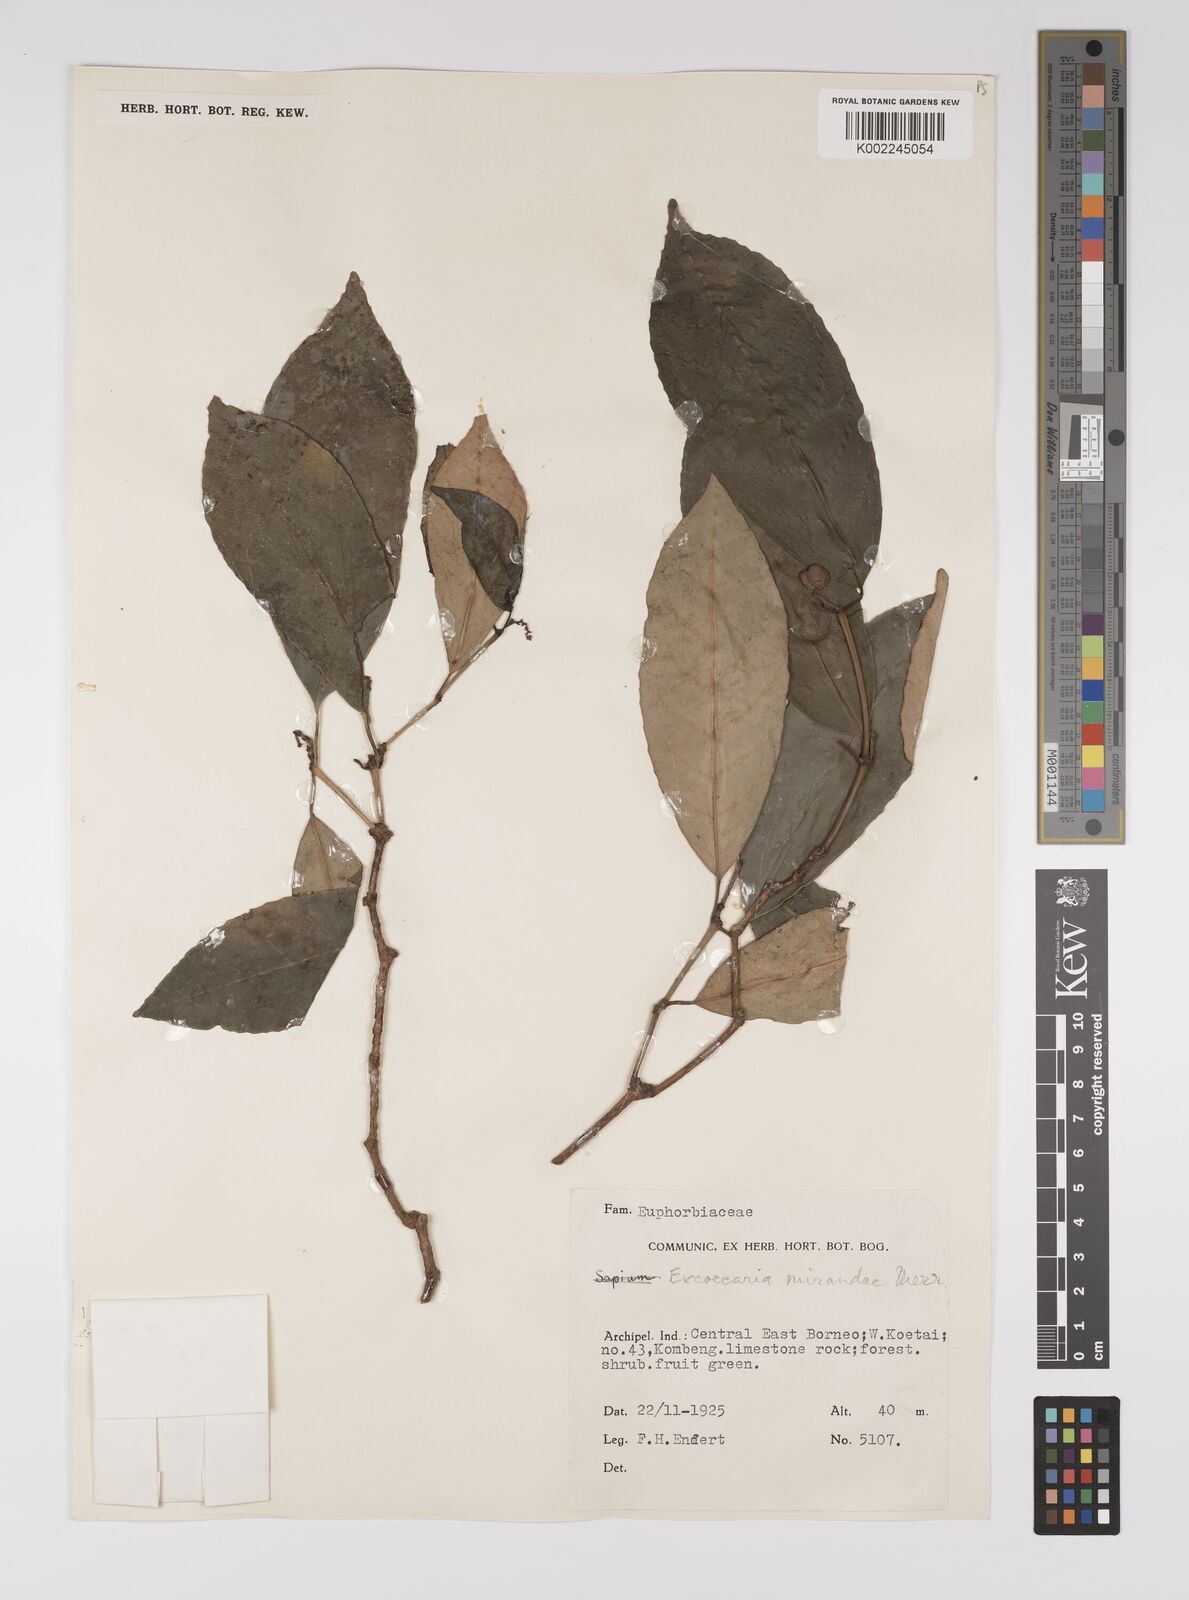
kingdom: Plantae
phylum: Tracheophyta
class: Magnoliopsida
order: Malpighiales
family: Euphorbiaceae
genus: Excoecaria
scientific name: Excoecaria borneensis
